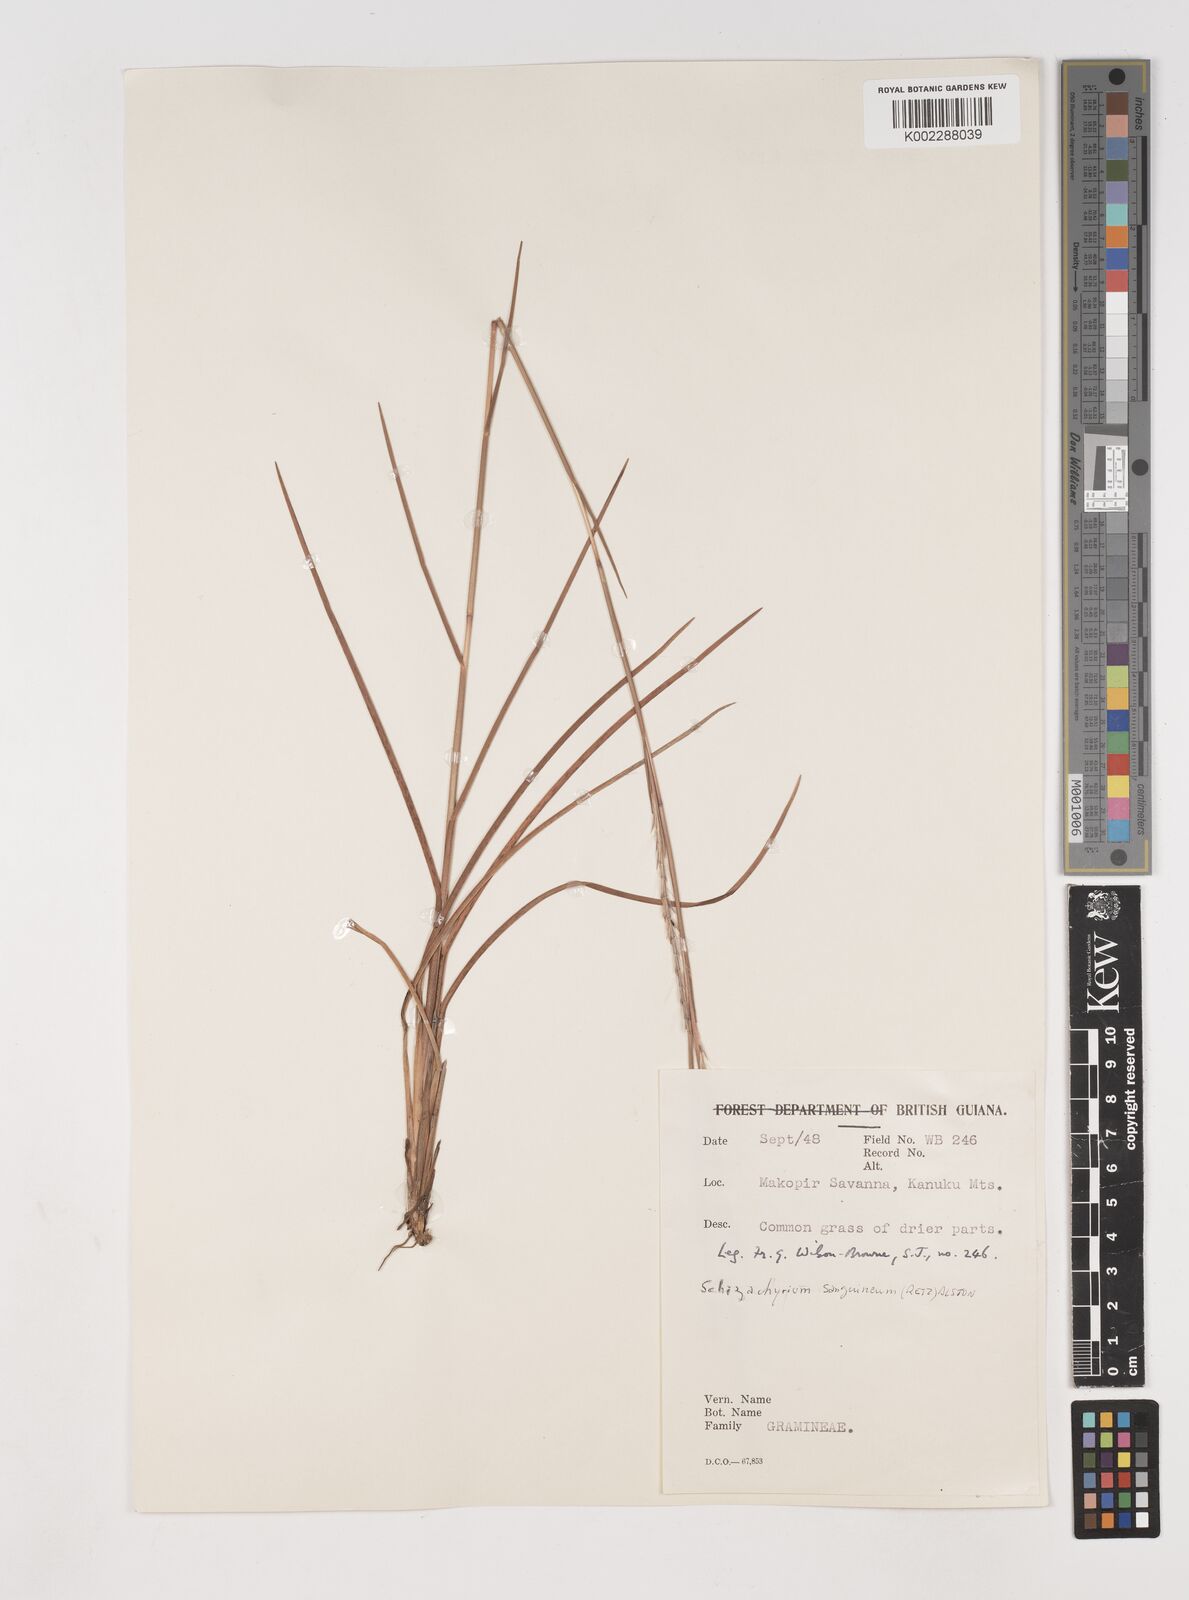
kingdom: Plantae
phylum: Tracheophyta
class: Liliopsida
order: Poales
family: Poaceae
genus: Schizachyrium
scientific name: Schizachyrium sanguineum
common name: Crimson bluestem
